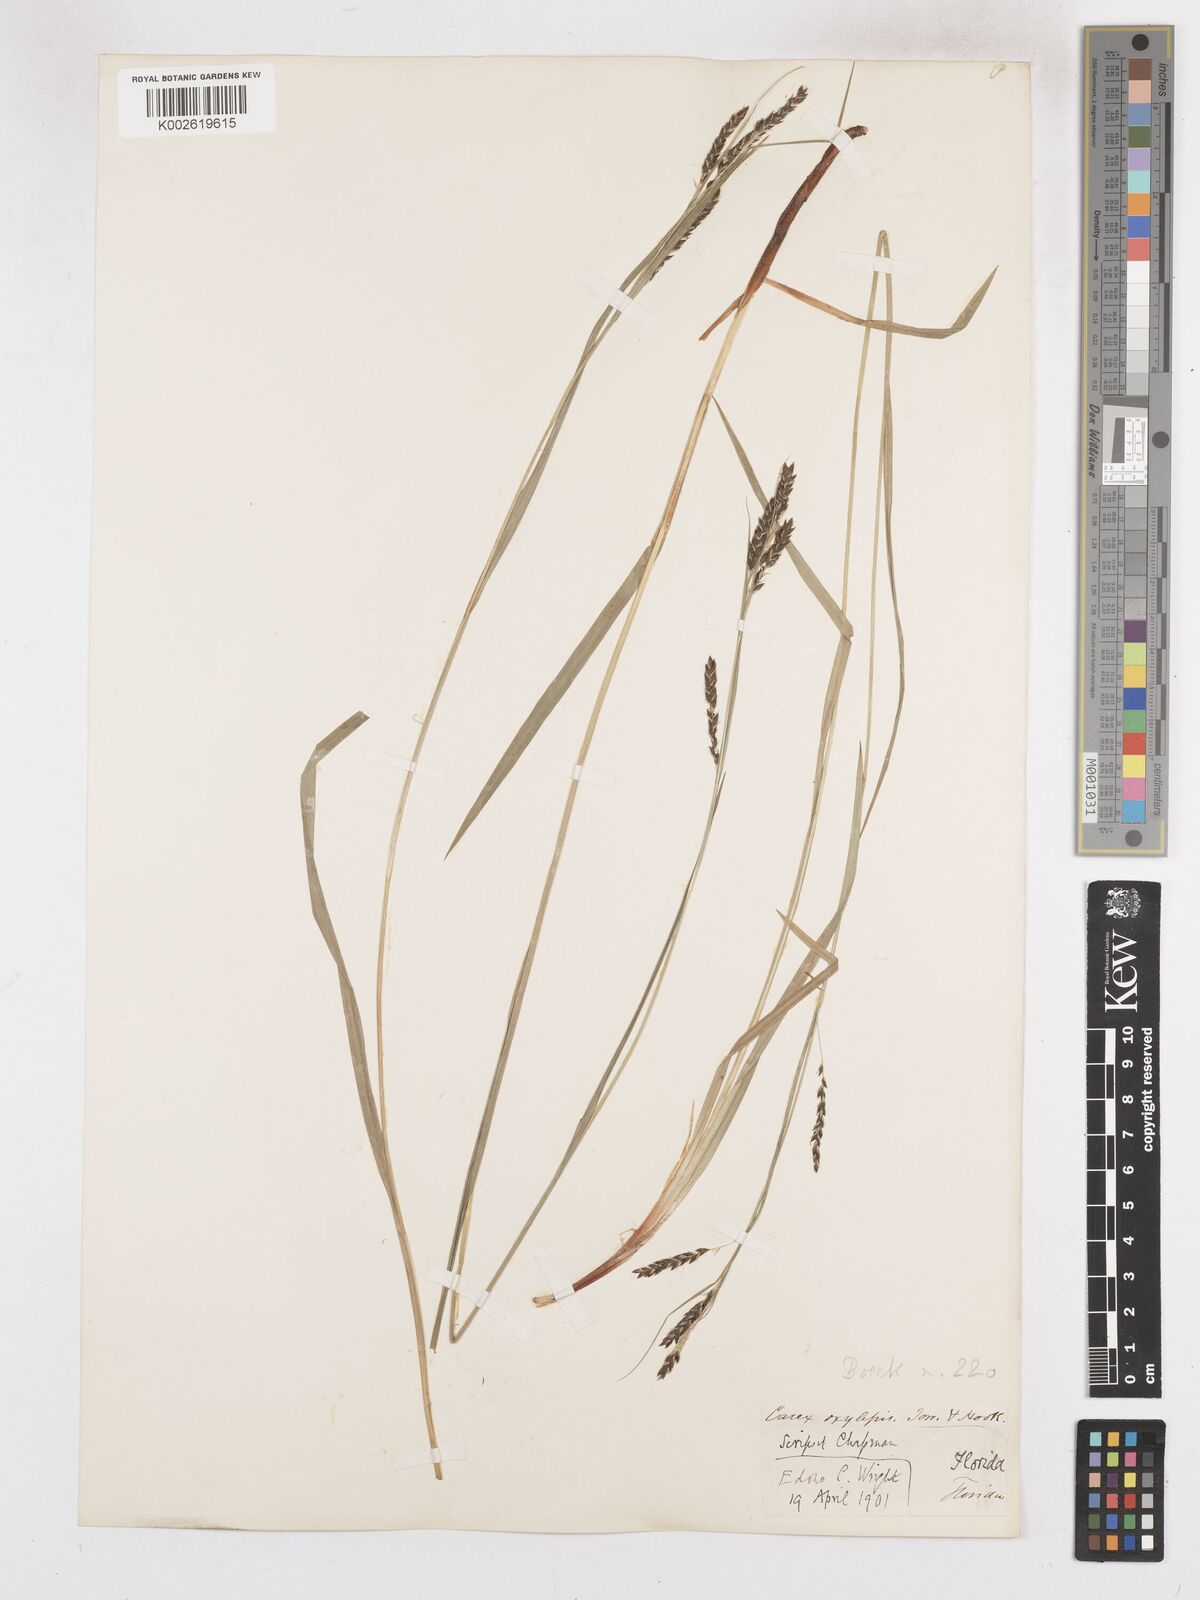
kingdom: Plantae
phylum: Tracheophyta
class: Liliopsida
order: Poales
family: Cyperaceae
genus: Carex
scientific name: Carex oxylepis
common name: Sharpscale sedge
